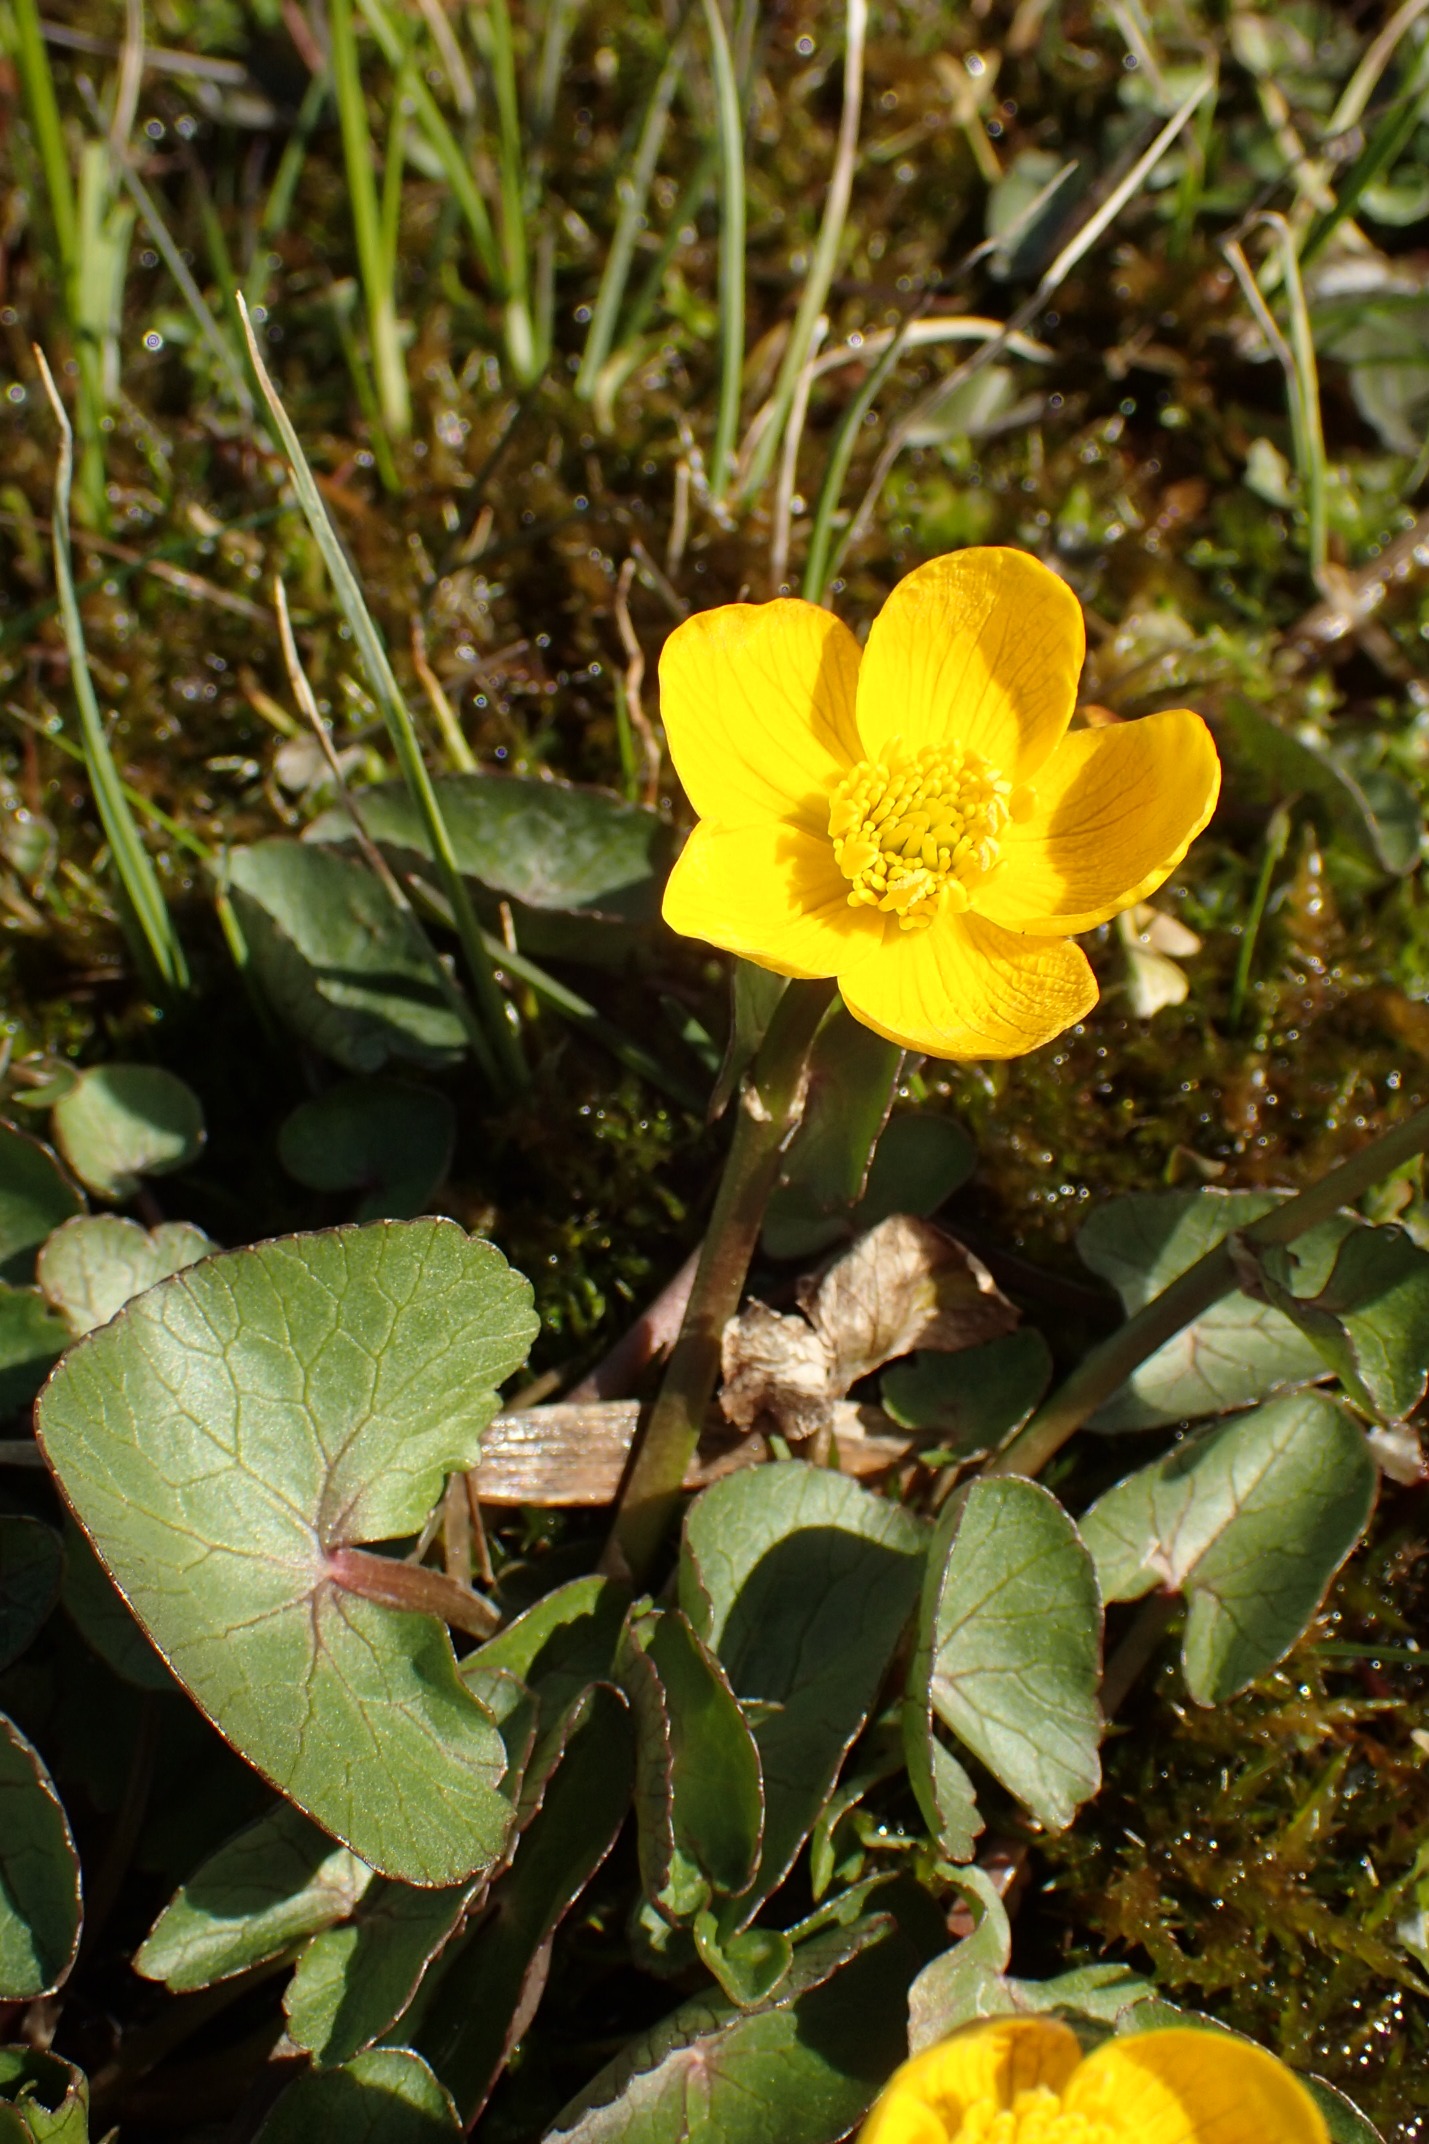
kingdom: Plantae
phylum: Tracheophyta
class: Magnoliopsida
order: Ranunculales
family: Ranunculaceae
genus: Caltha
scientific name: Caltha palustris
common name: Eng-kabbeleje
